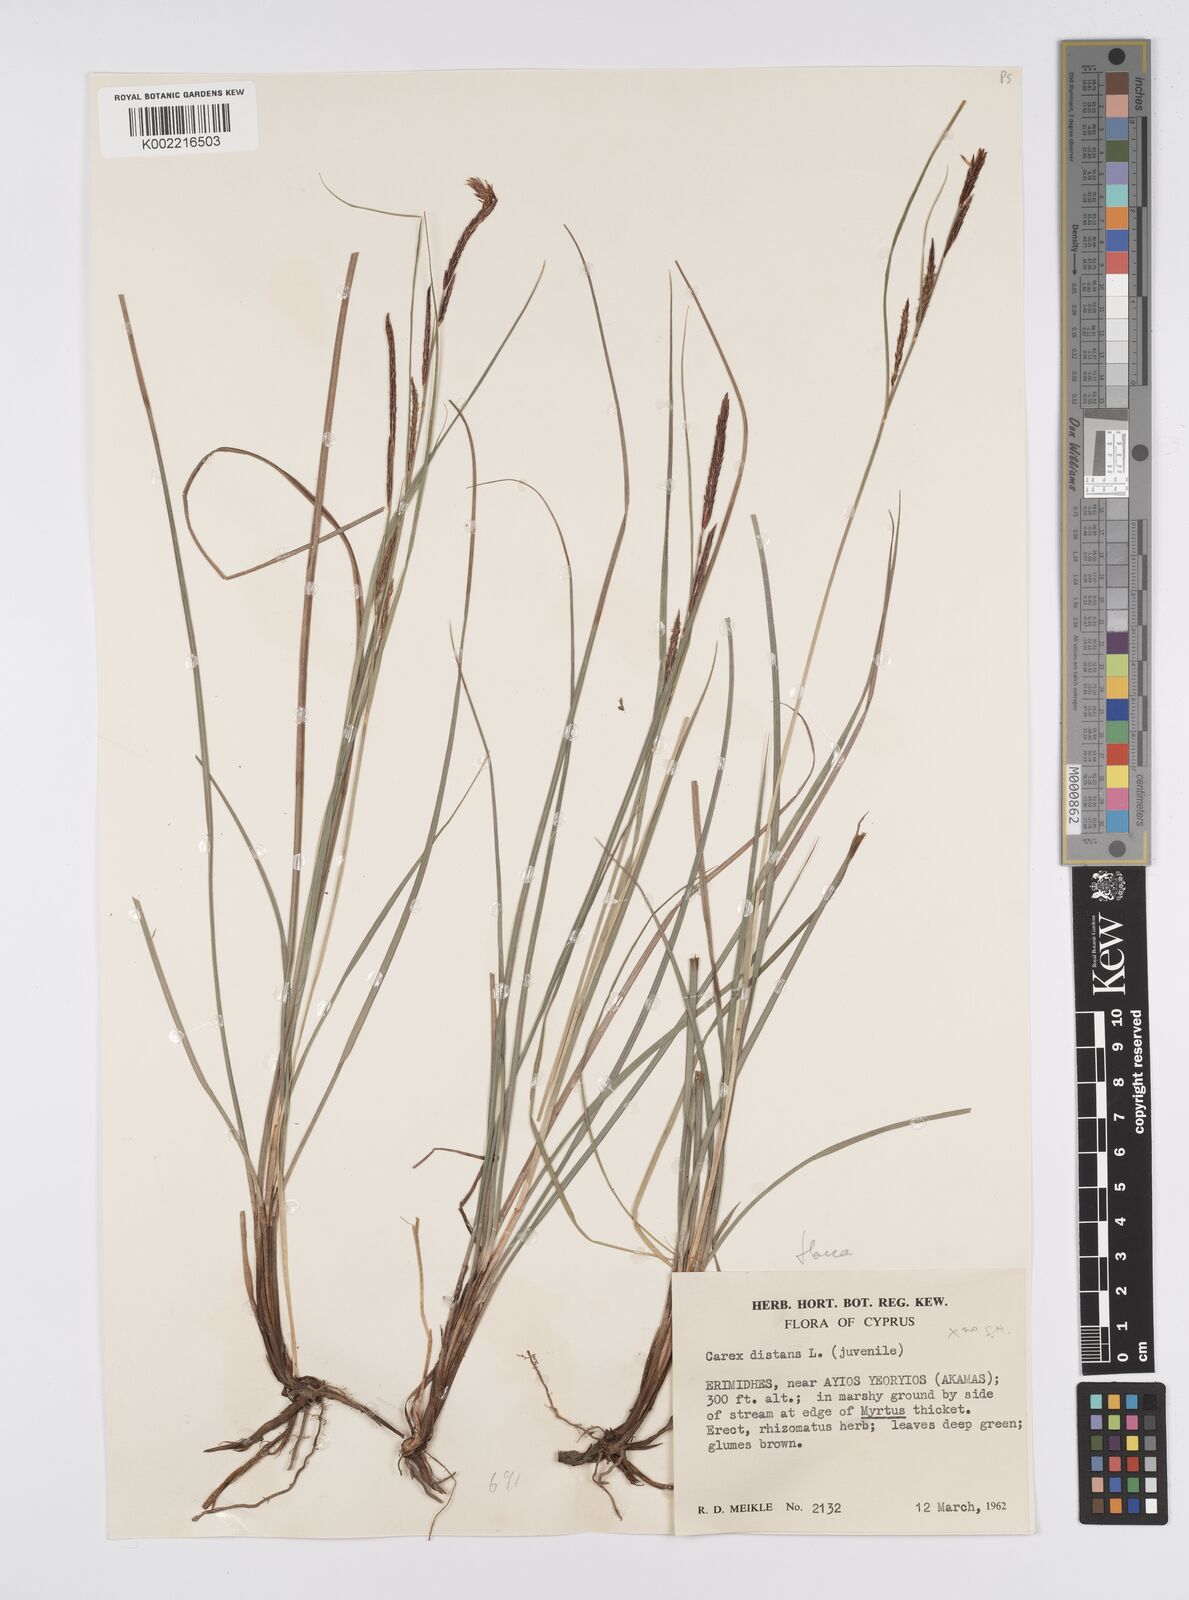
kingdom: Plantae
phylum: Tracheophyta
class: Liliopsida
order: Poales
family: Cyperaceae
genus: Carex
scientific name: Carex flacca
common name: Glaucous sedge
